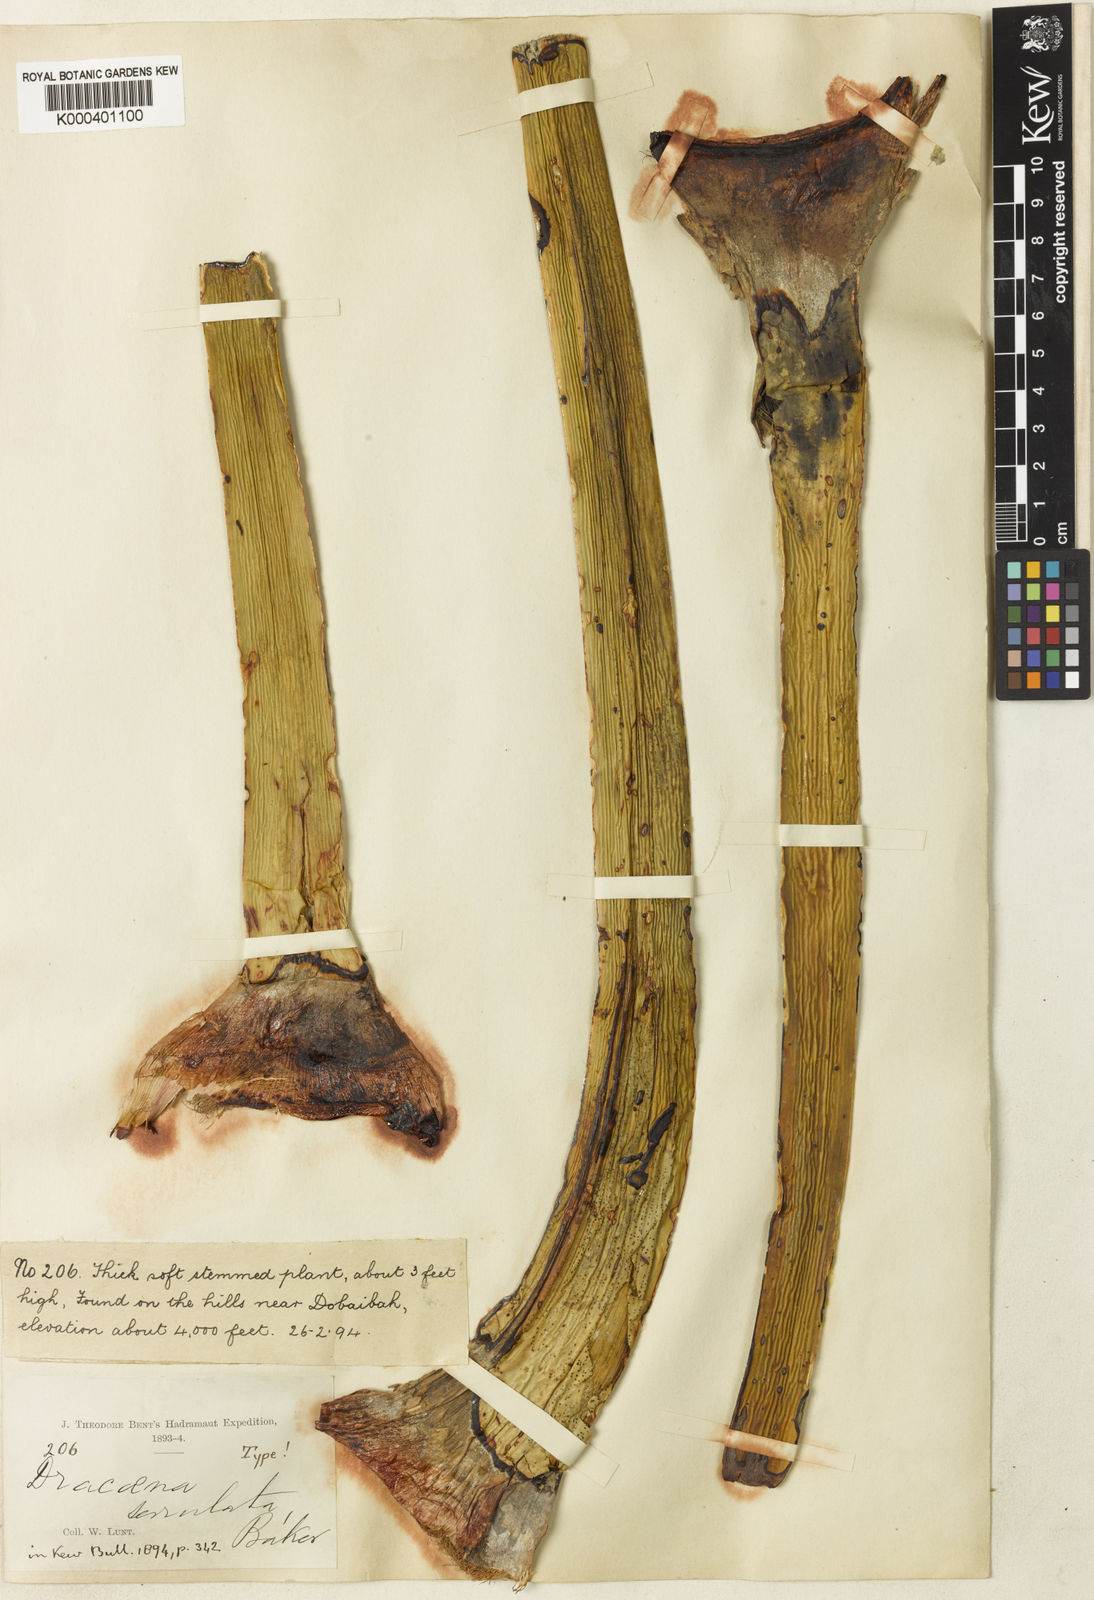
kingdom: Plantae
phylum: Tracheophyta
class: Liliopsida
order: Asparagales
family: Asparagaceae
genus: Dracaena
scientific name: Dracaena serrulata
